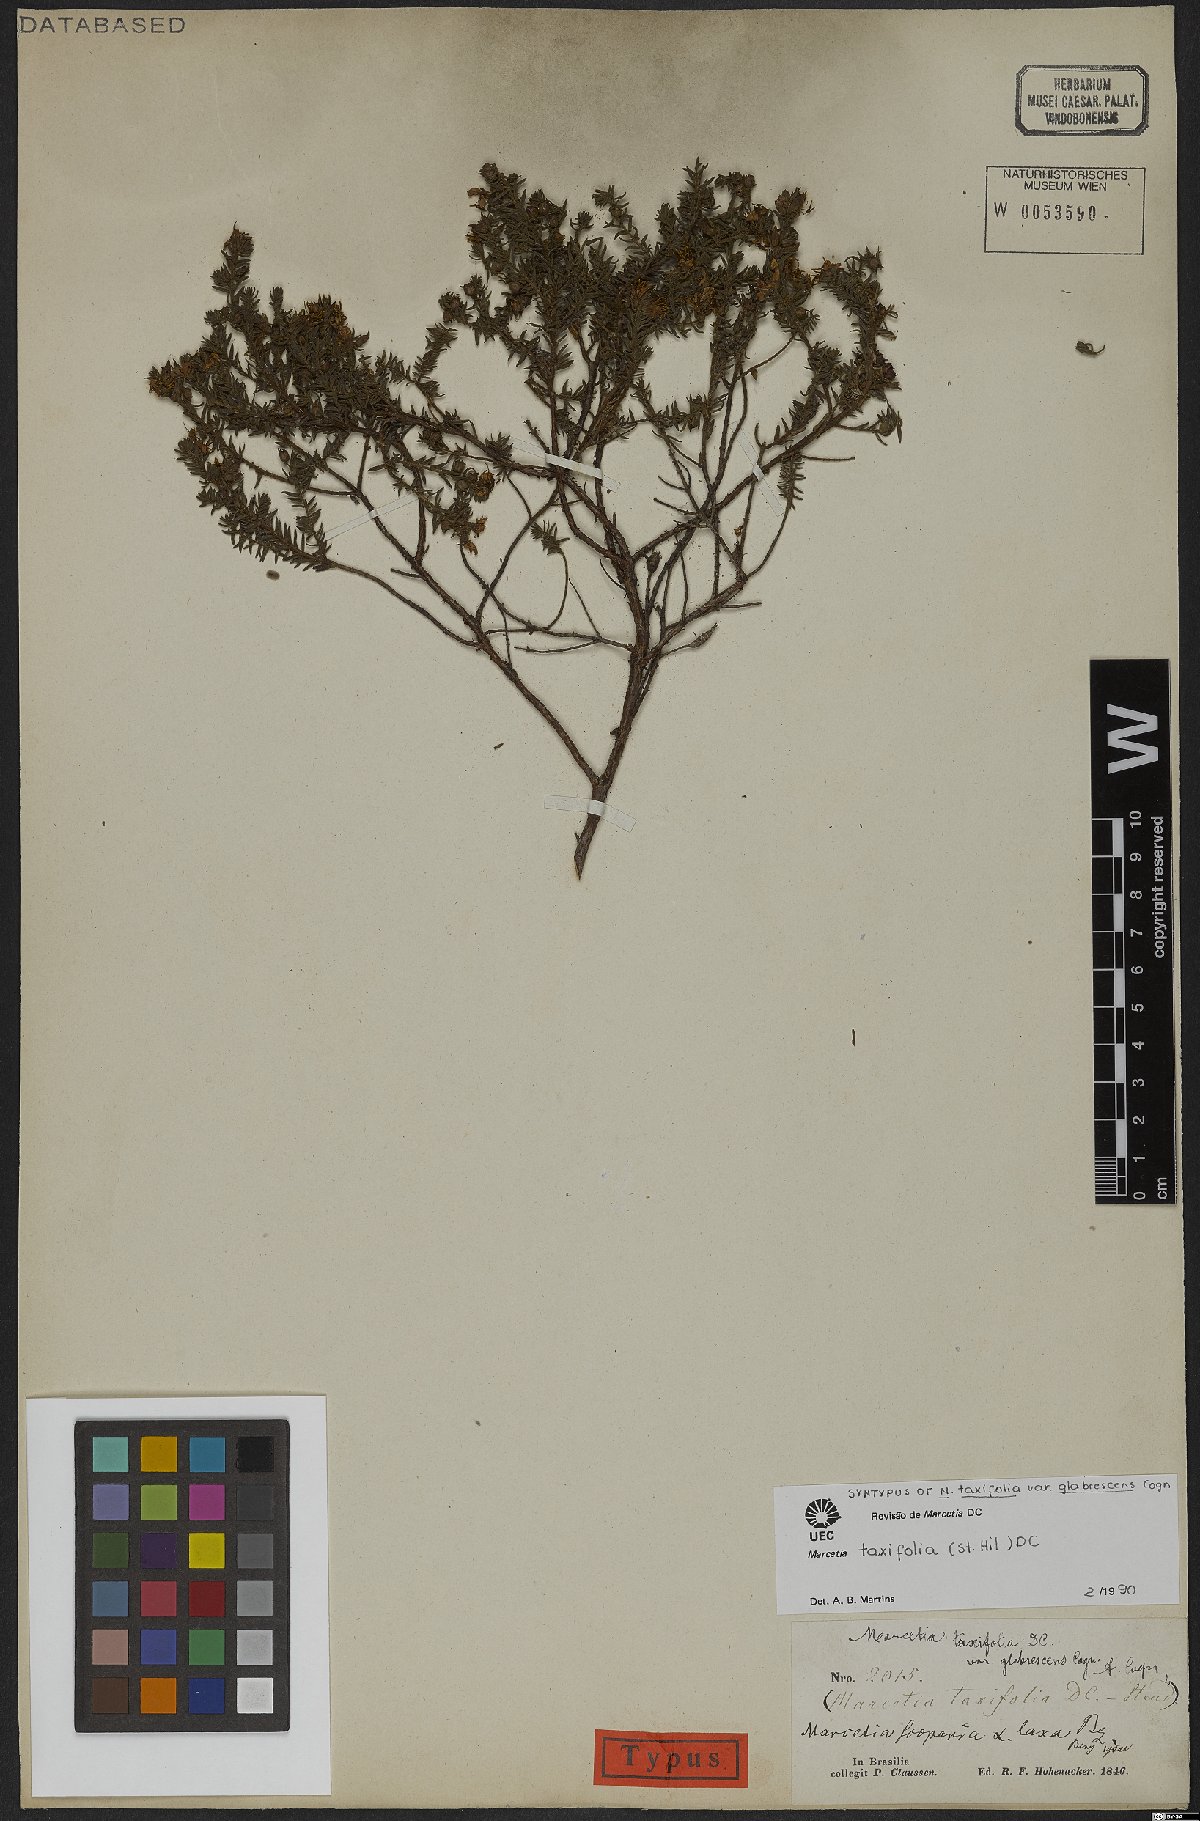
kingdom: Plantae
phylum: Tracheophyta
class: Magnoliopsida
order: Myrtales
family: Melastomataceae
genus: Marcetia
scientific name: Marcetia taxifolia
